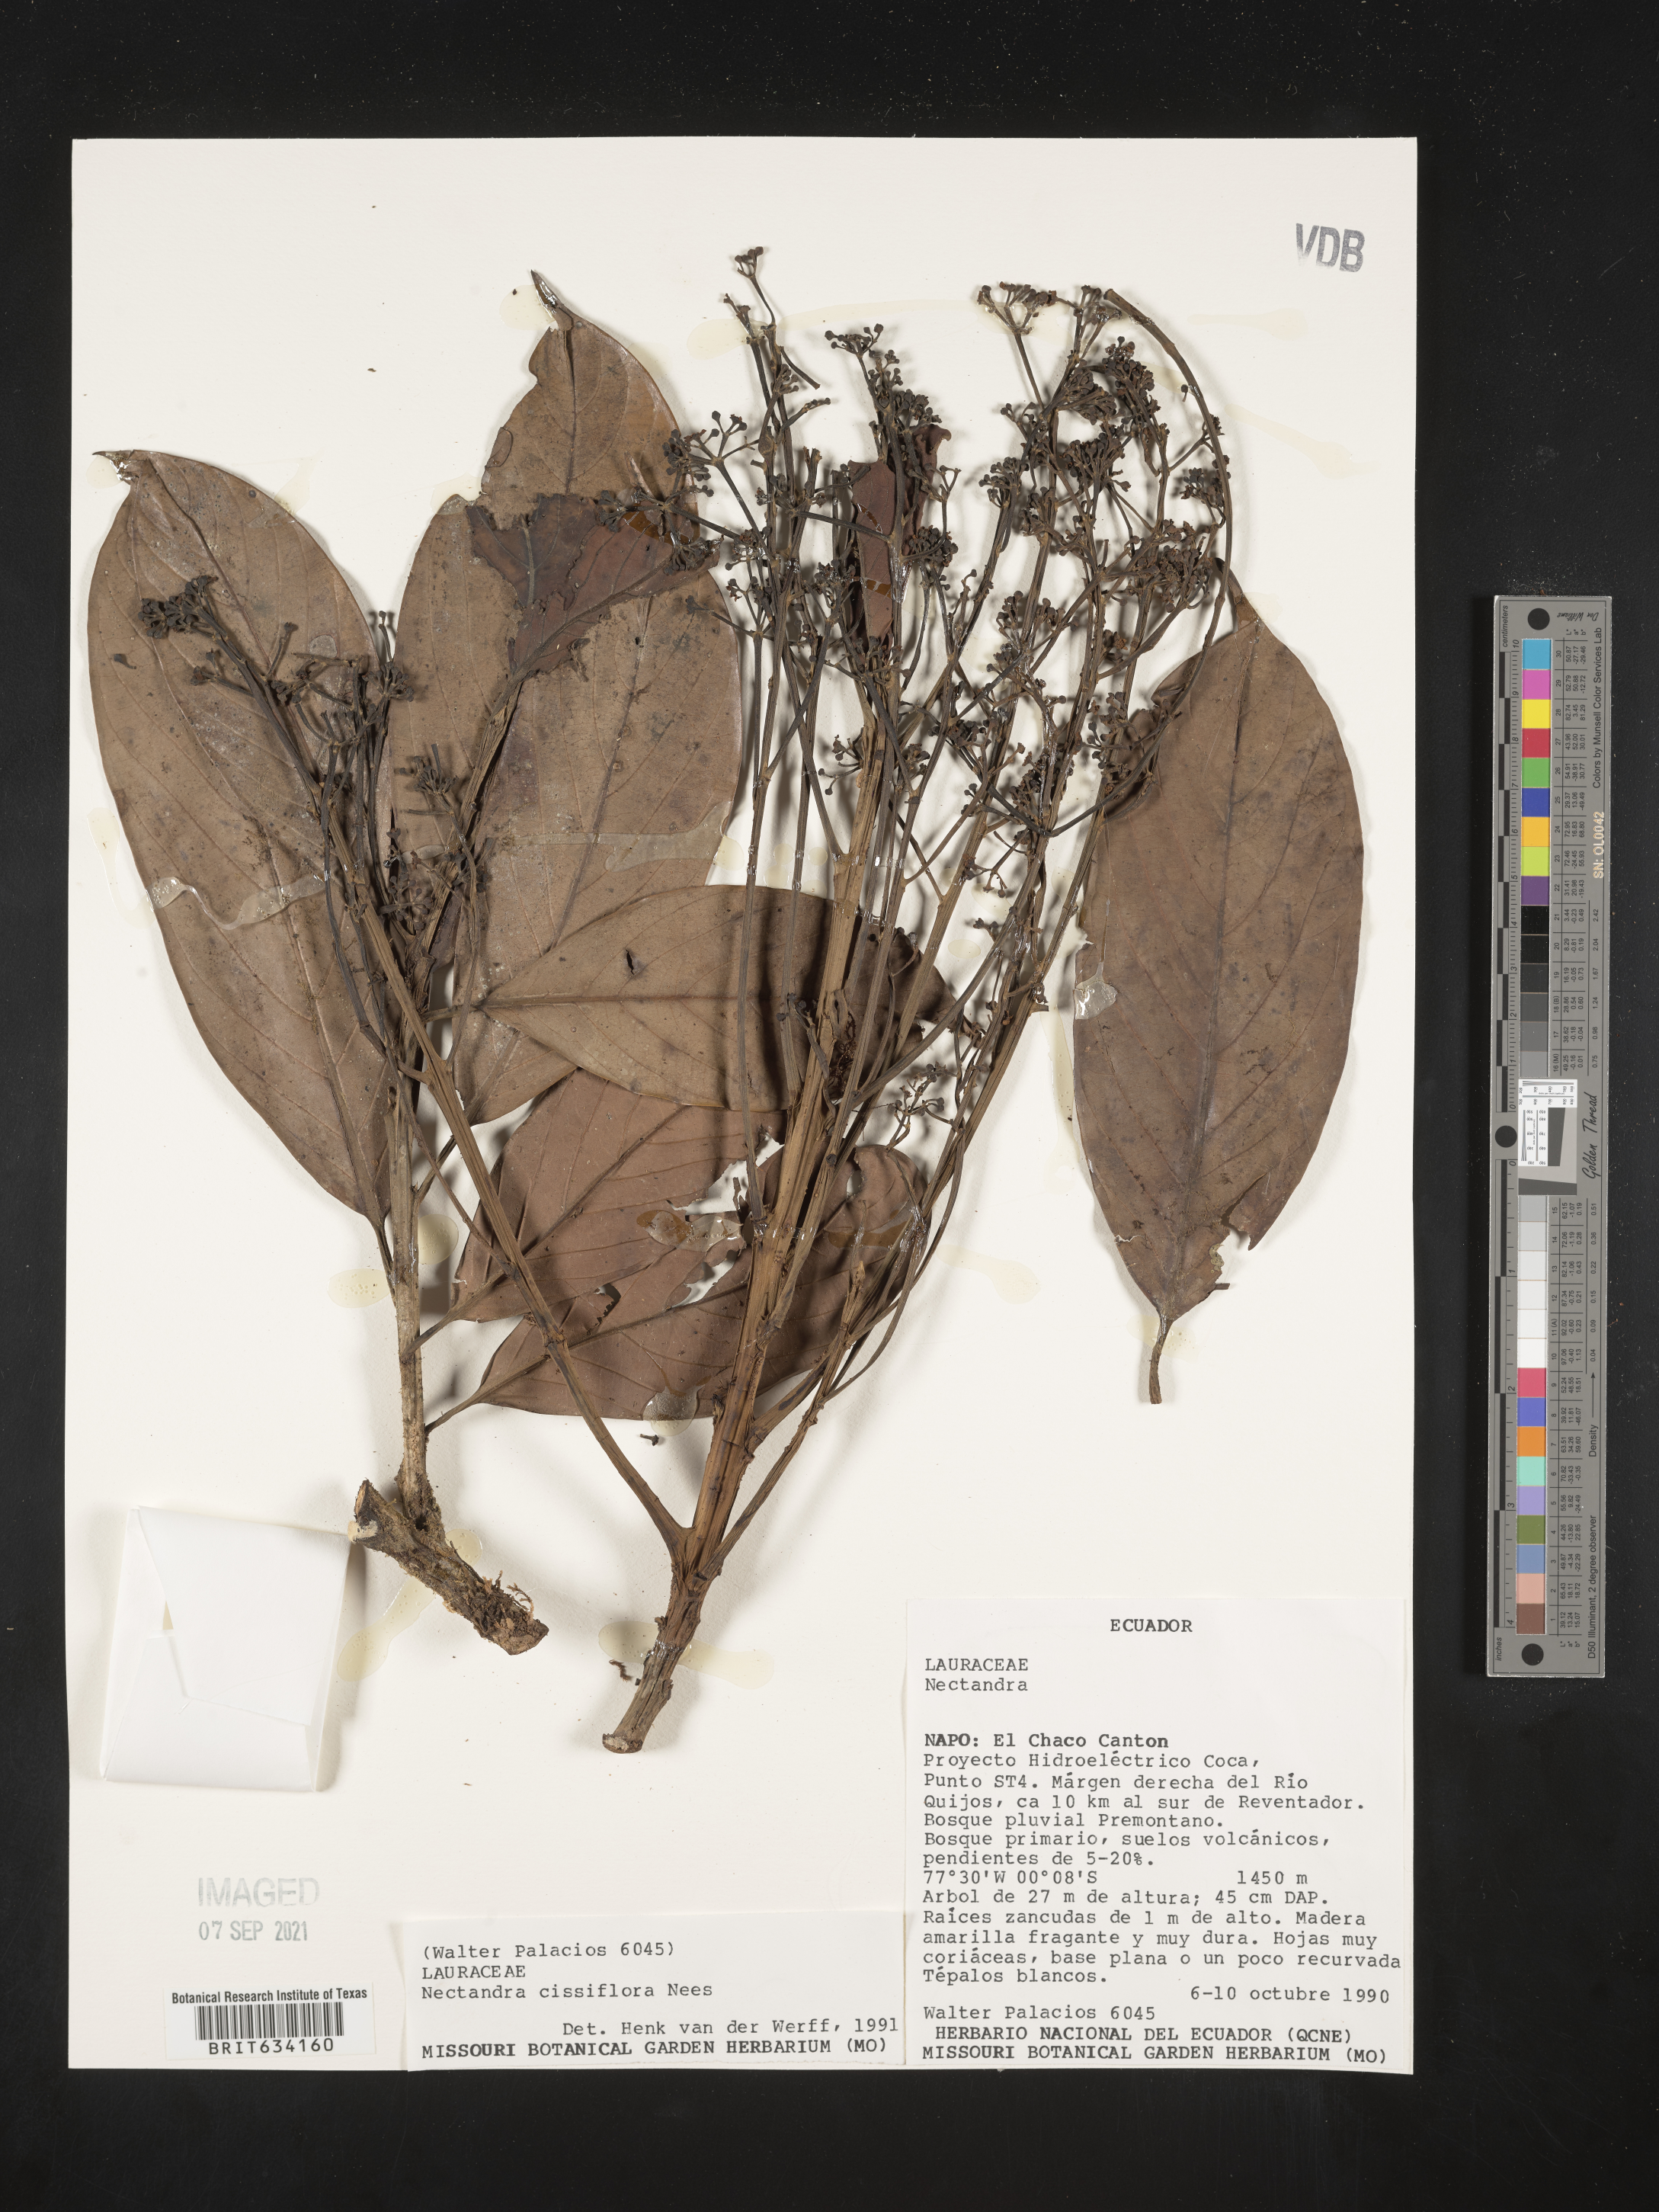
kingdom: Plantae
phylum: Tracheophyta
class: Magnoliopsida
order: Laurales
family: Lauraceae
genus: Nectandra
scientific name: Nectandra
